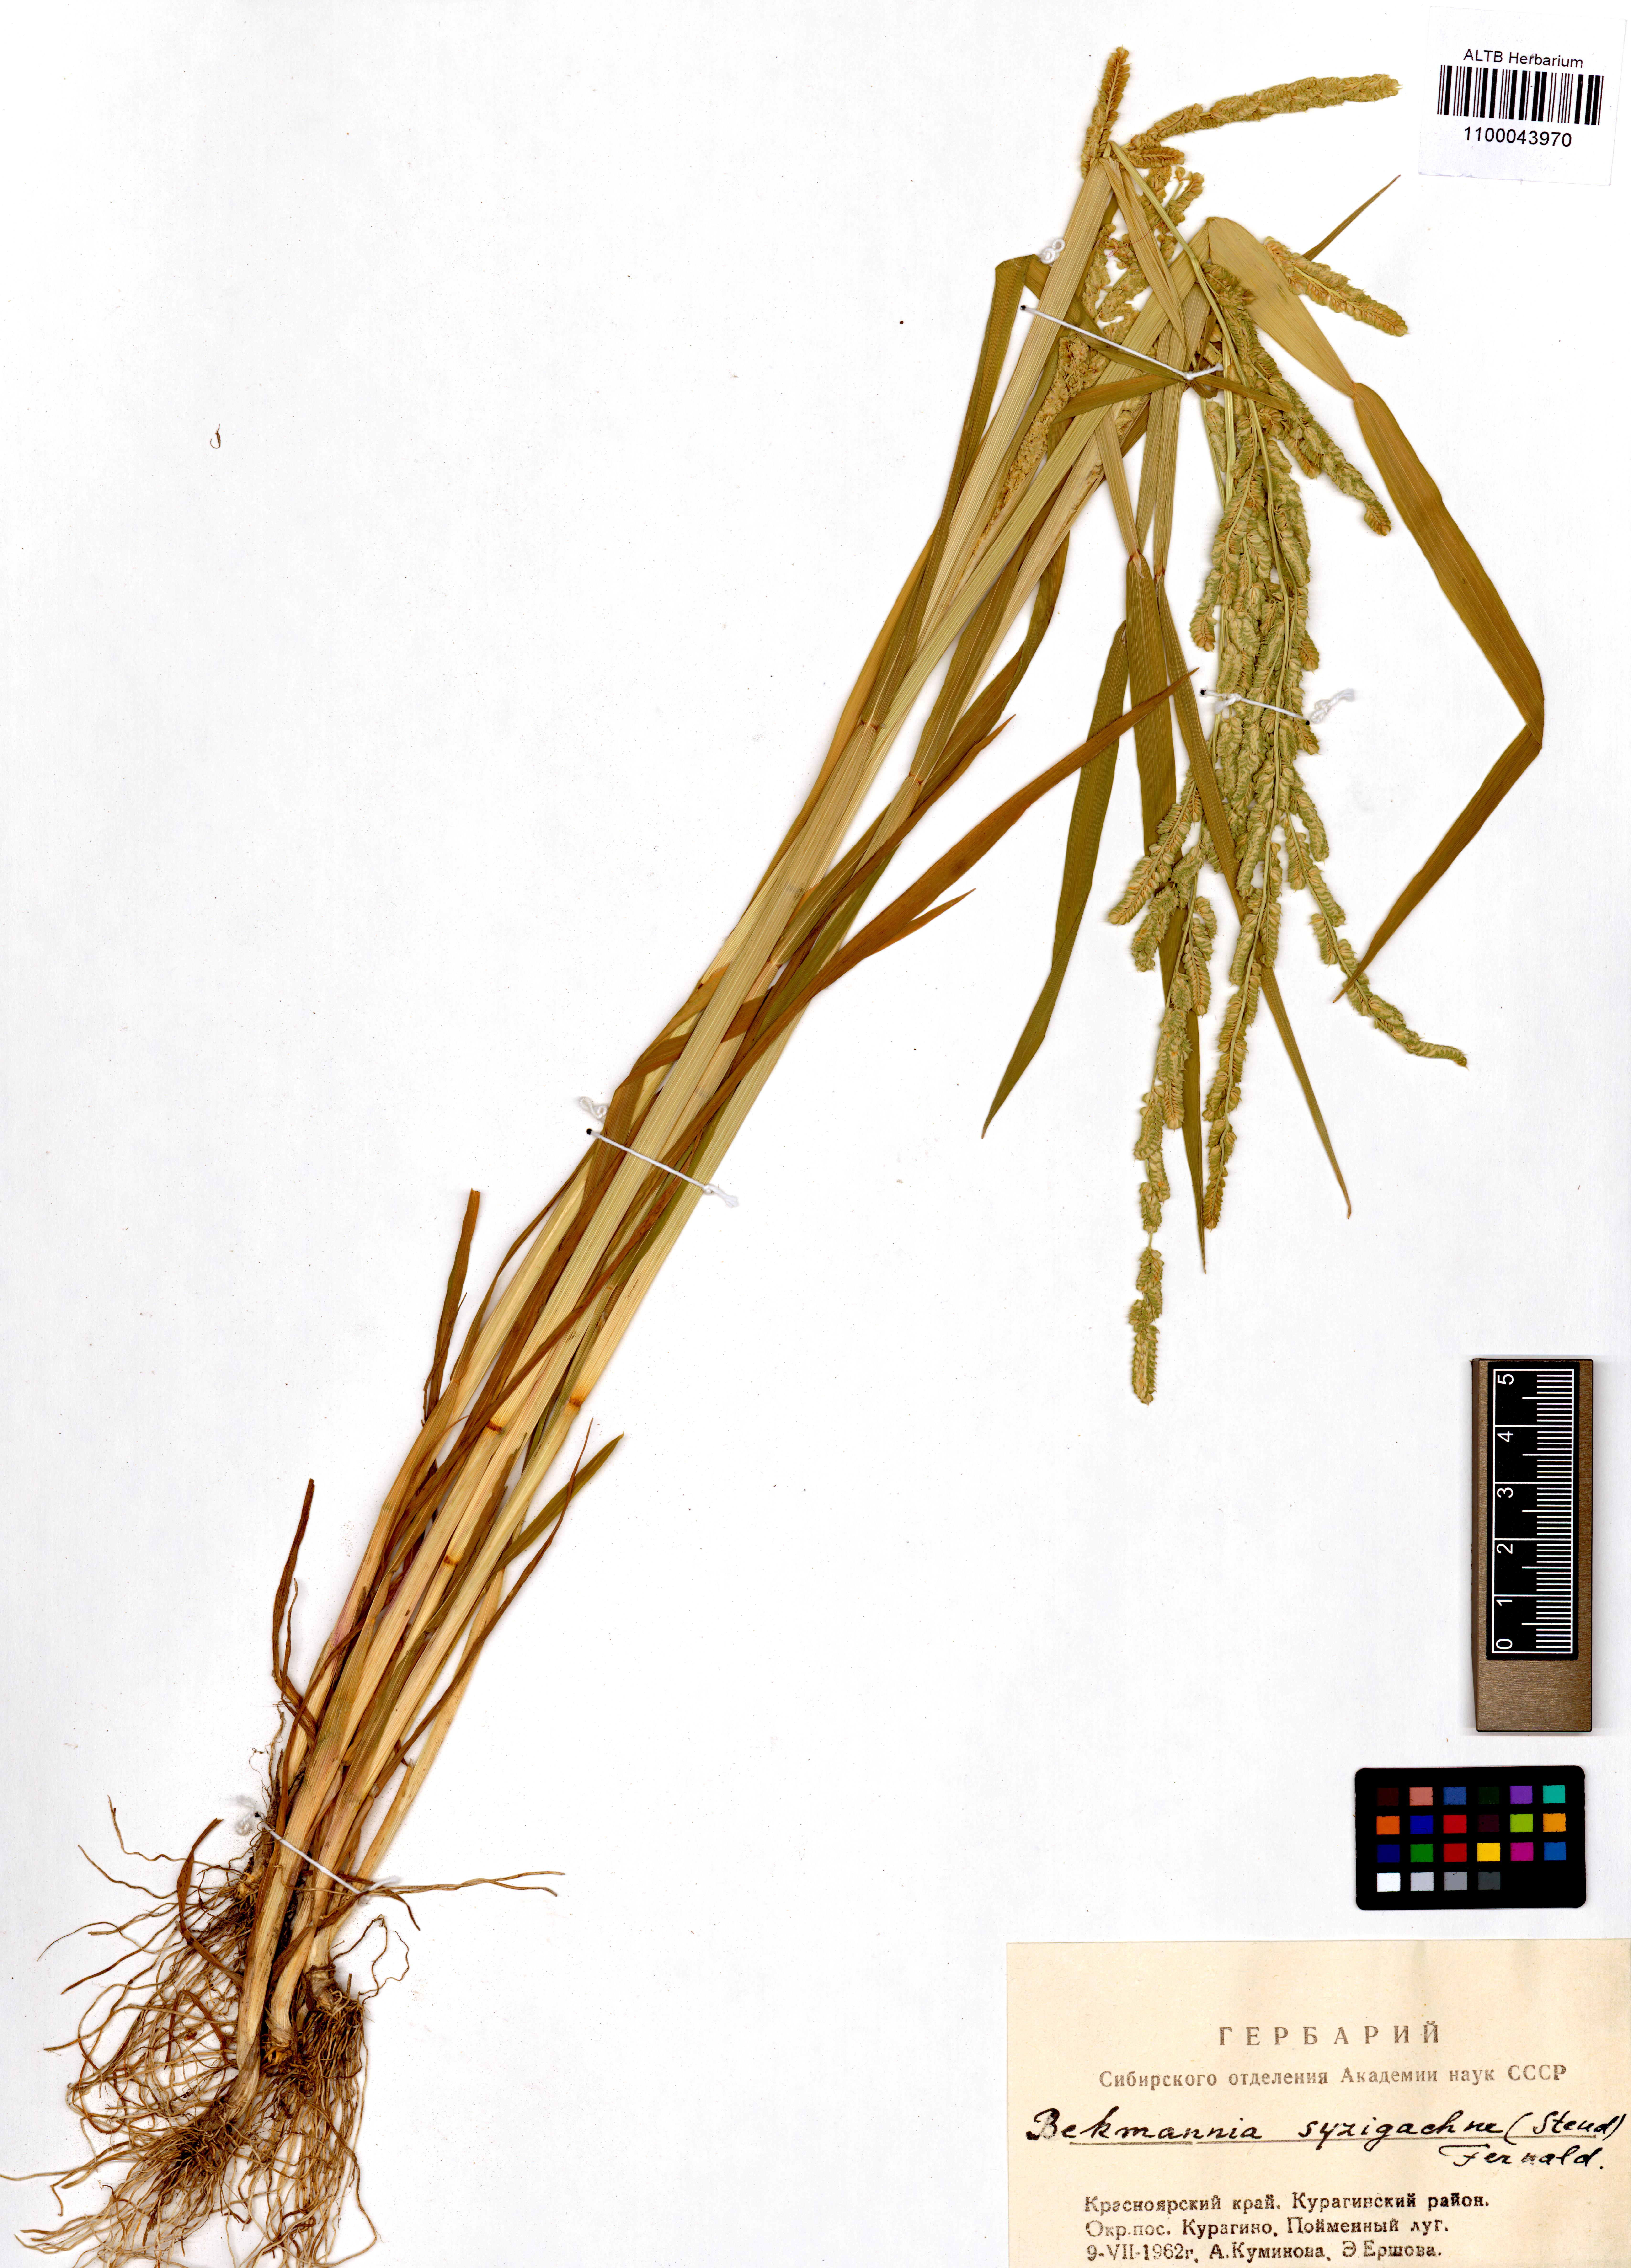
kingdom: Plantae
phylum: Tracheophyta
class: Liliopsida
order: Poales
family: Poaceae
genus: Beckmannia
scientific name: Beckmannia syzigachne
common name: American slough-grass
